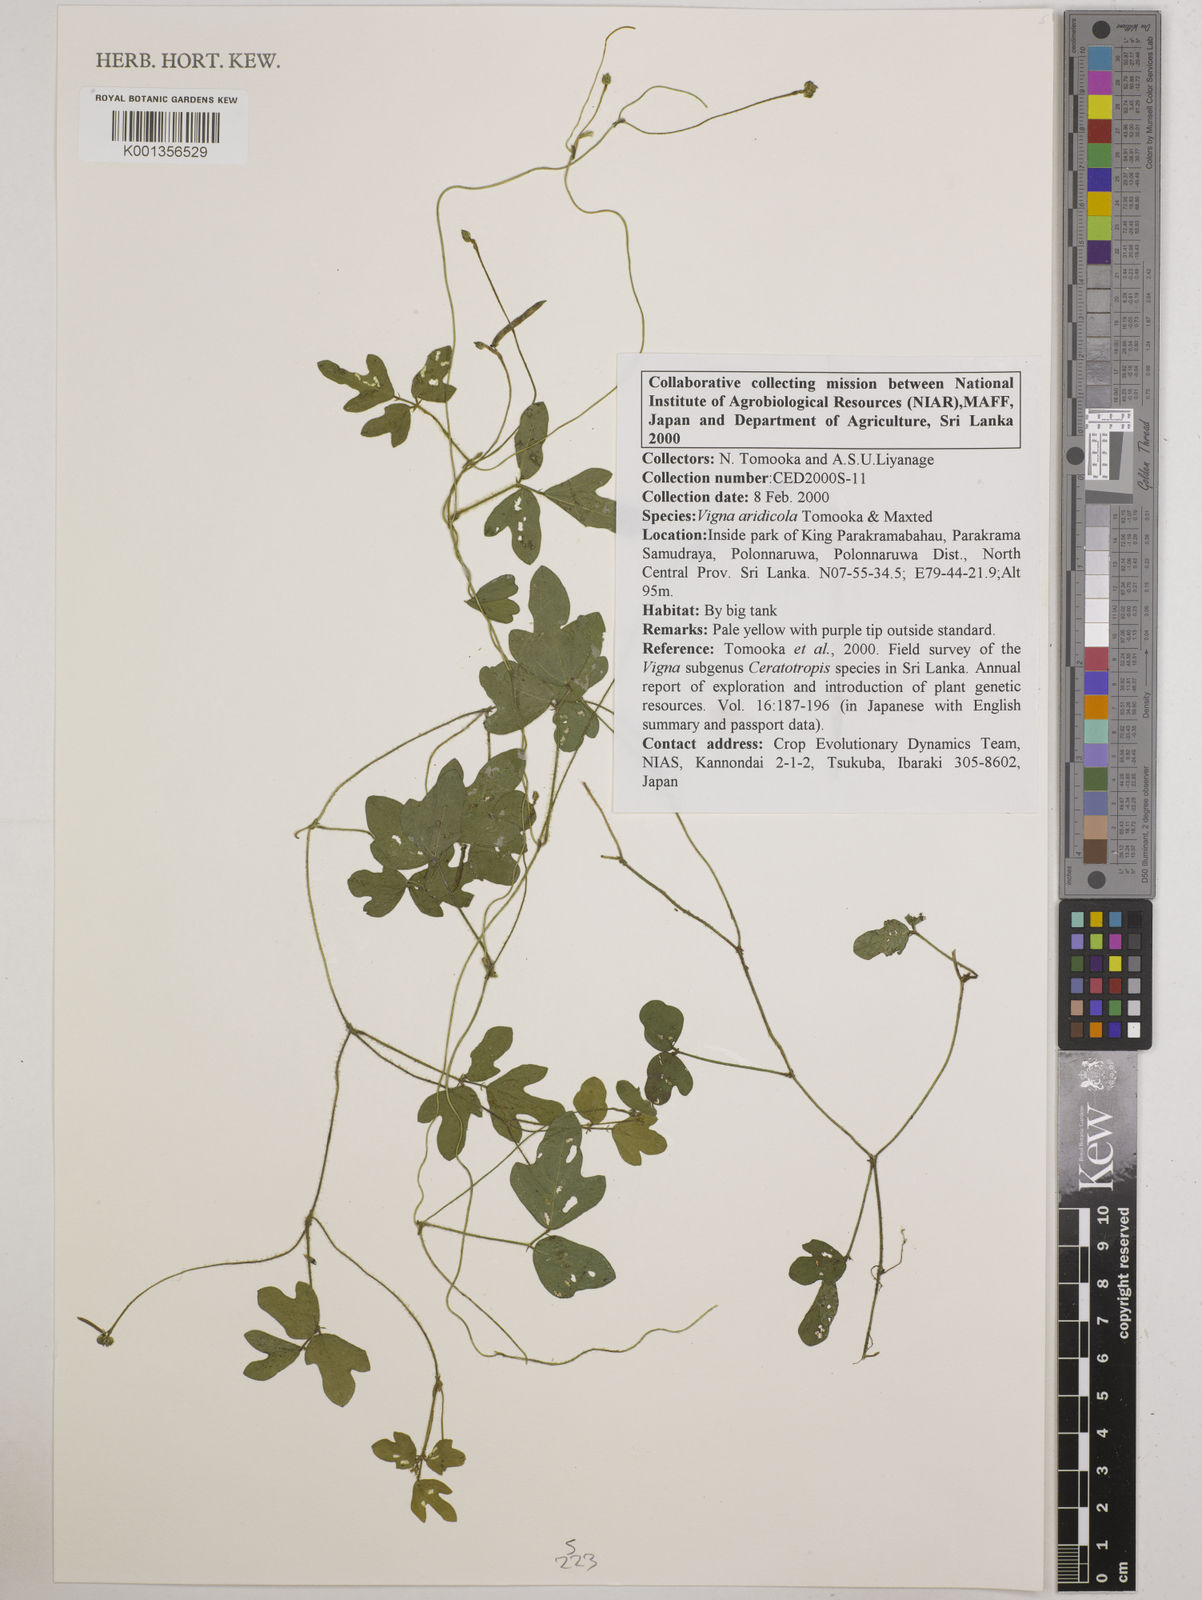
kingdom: Plantae
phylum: Tracheophyta
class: Magnoliopsida
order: Fabales
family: Fabaceae
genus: Vigna
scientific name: Vigna
